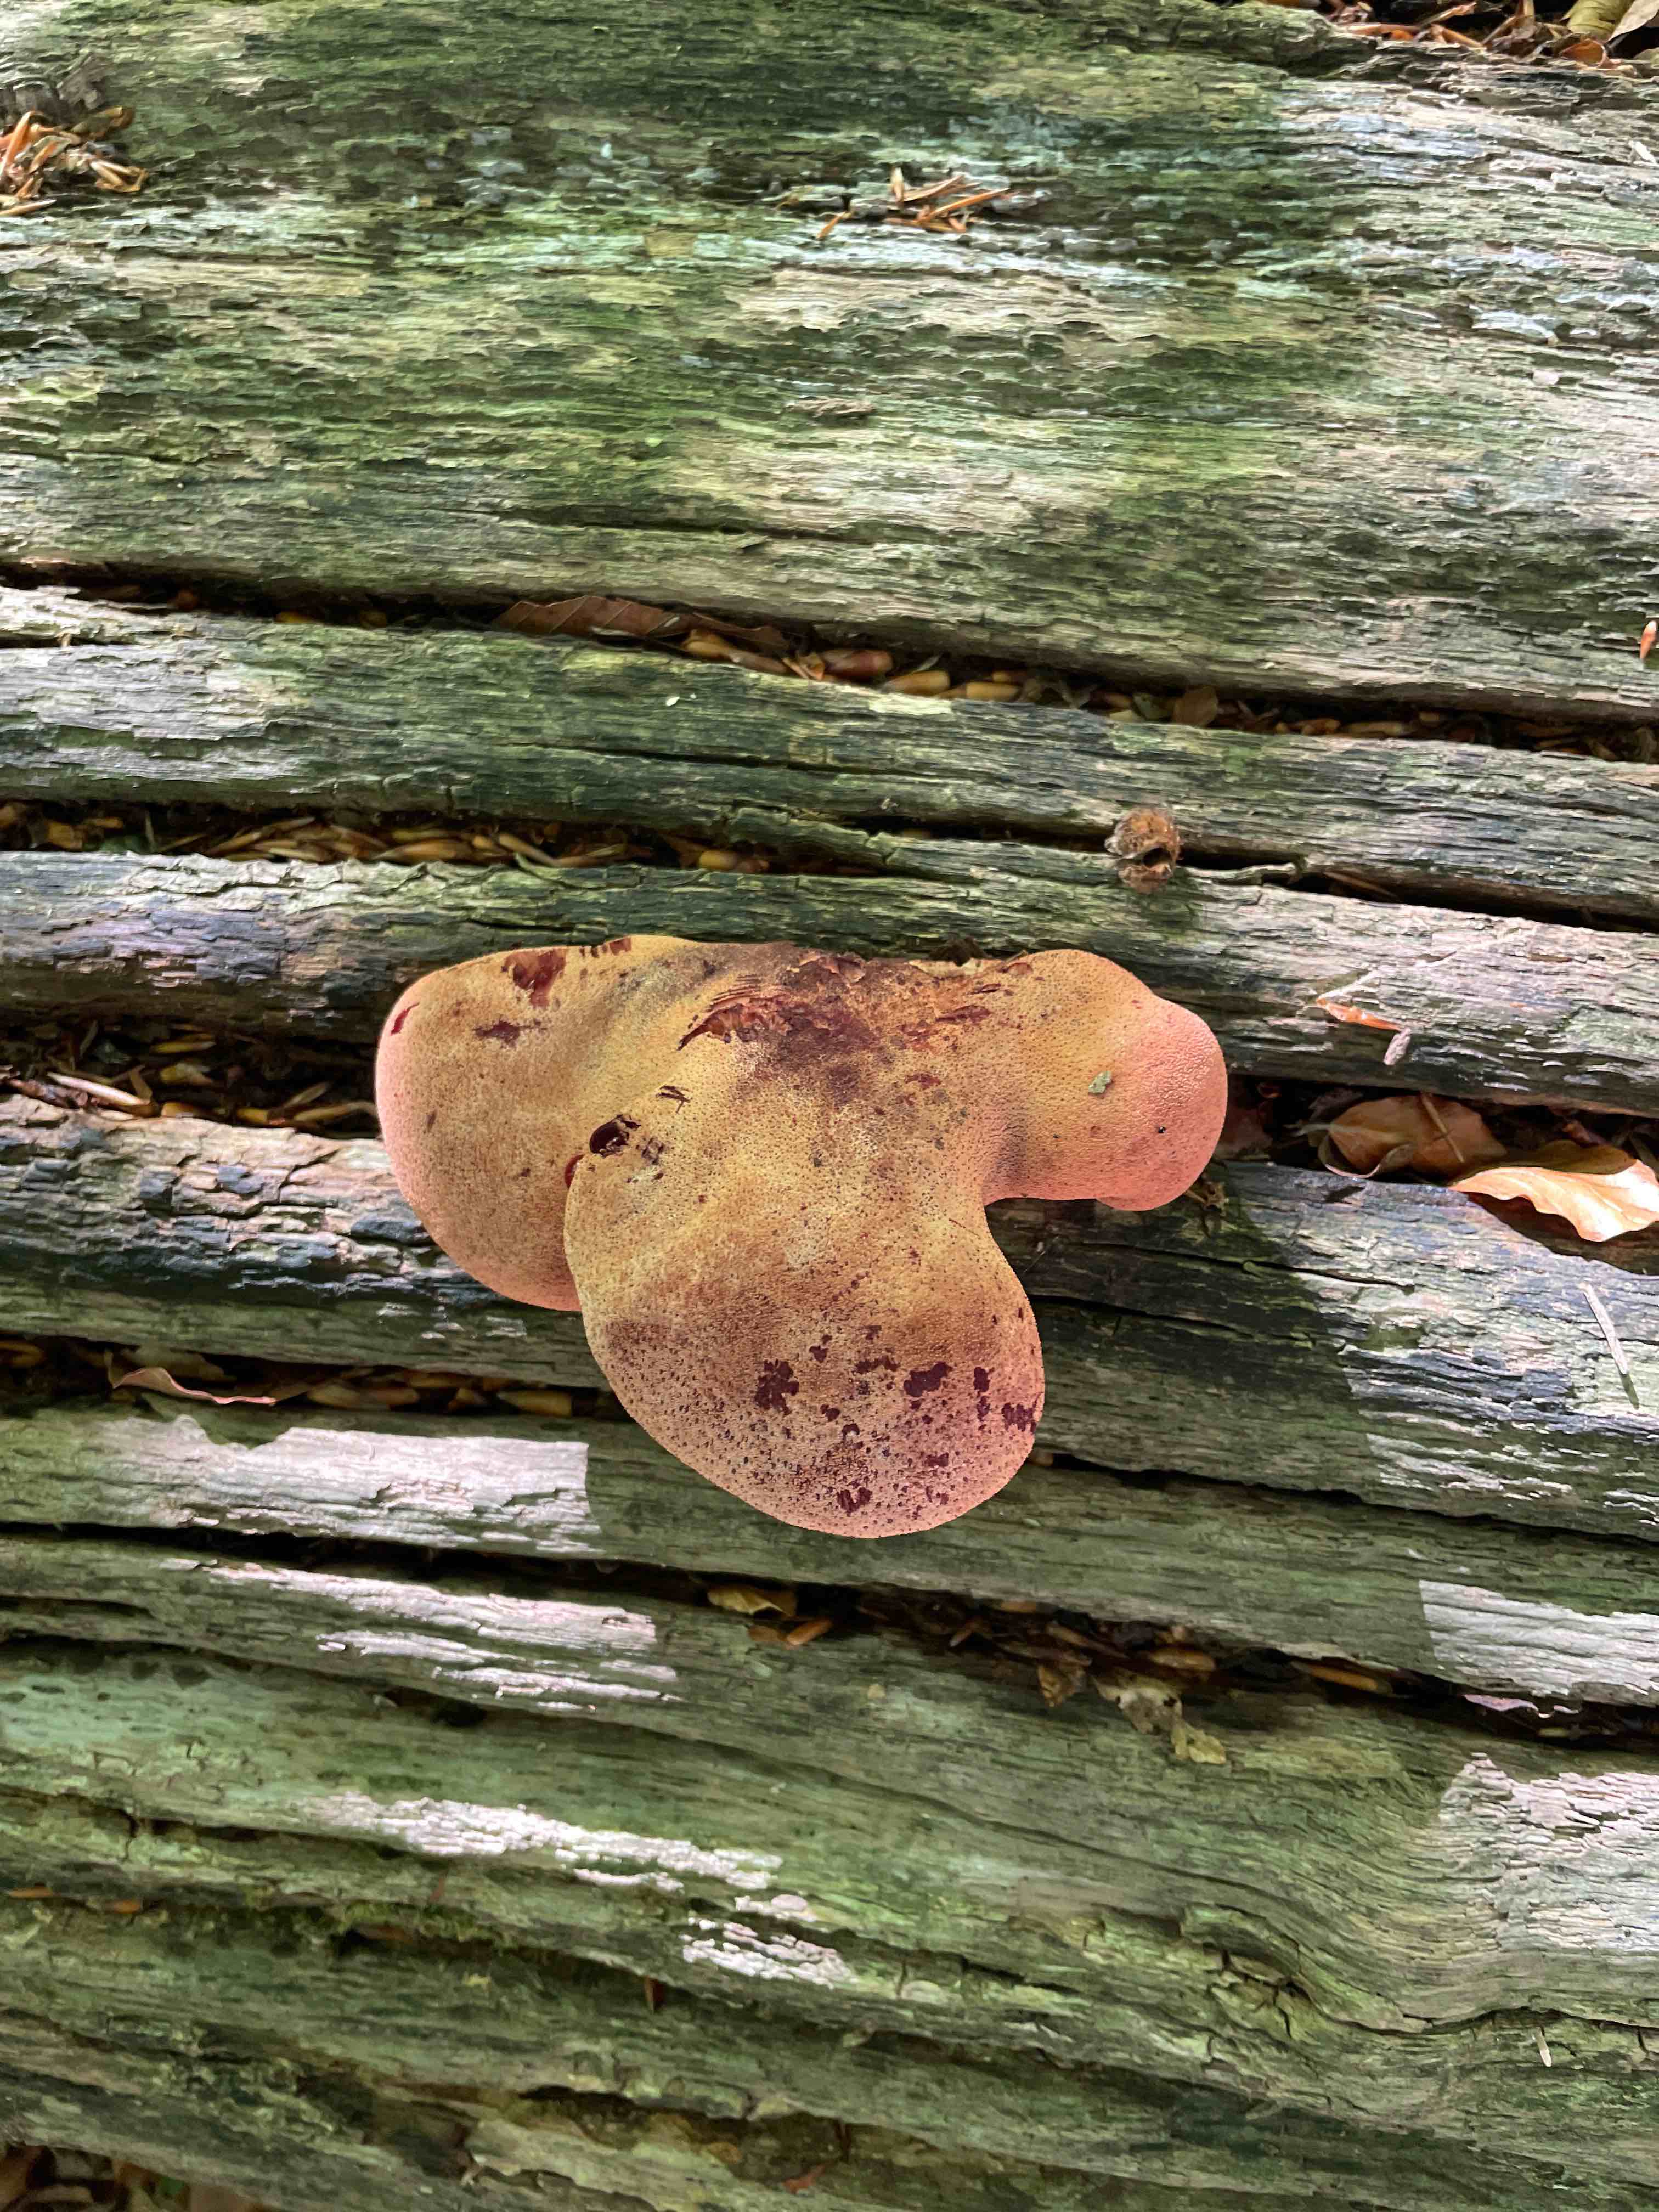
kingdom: Fungi
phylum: Basidiomycota
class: Agaricomycetes
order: Agaricales
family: Fistulinaceae
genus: Fistulina
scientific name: Fistulina hepatica
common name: oksetunge
